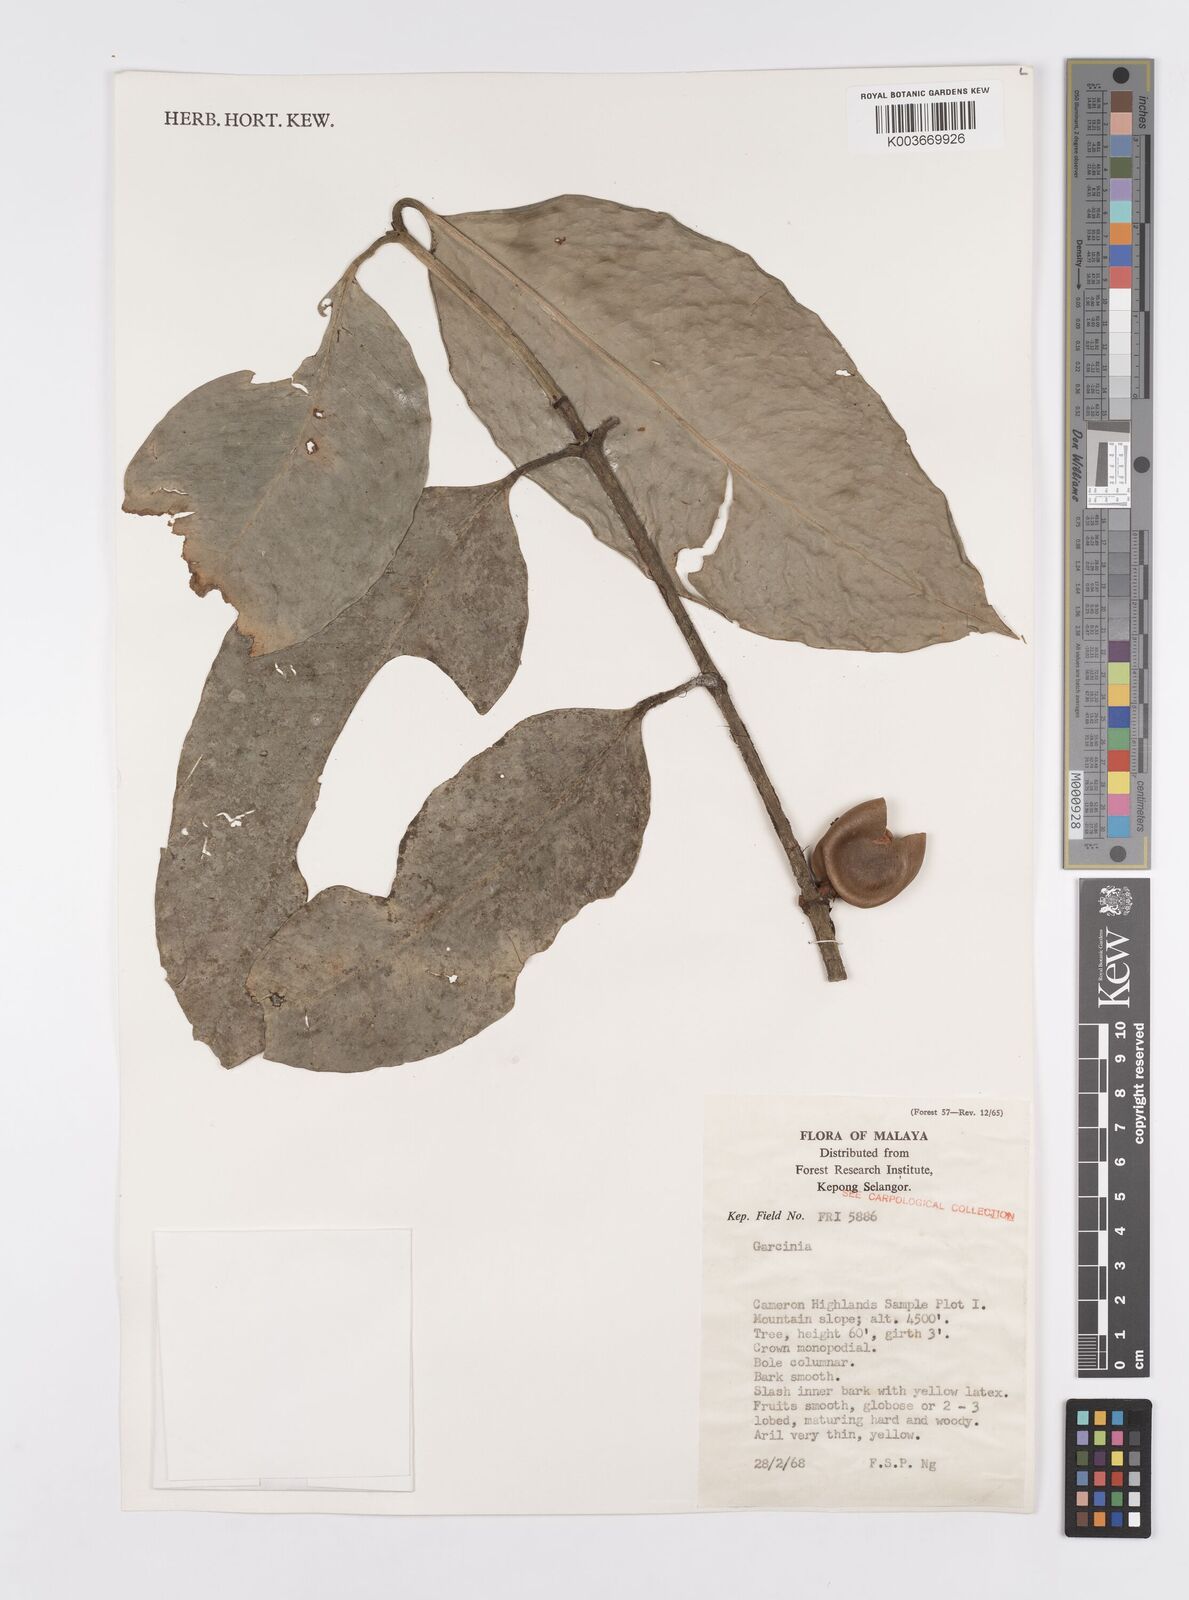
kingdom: Plantae
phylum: Tracheophyta
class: Magnoliopsida
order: Malpighiales
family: Clusiaceae
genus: Garcinia
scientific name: Garcinia
